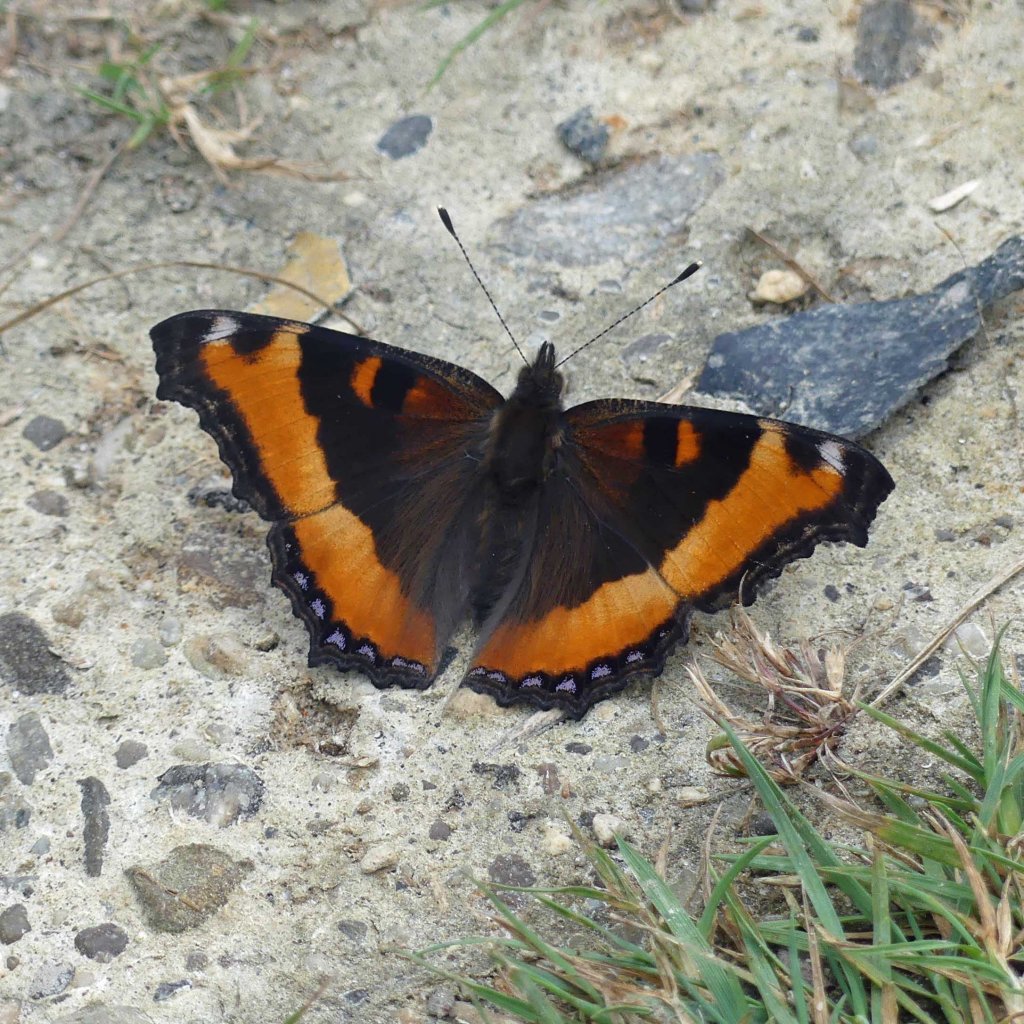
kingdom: Animalia
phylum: Arthropoda
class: Insecta
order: Lepidoptera
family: Nymphalidae
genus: Aglais
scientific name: Aglais milberti
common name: Milbert's Tortoiseshell
